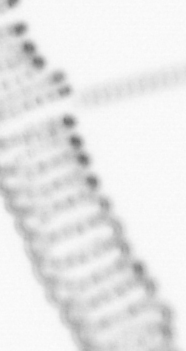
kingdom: Chromista
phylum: Ochrophyta
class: Bacillariophyceae
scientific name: Bacillariophyceae
